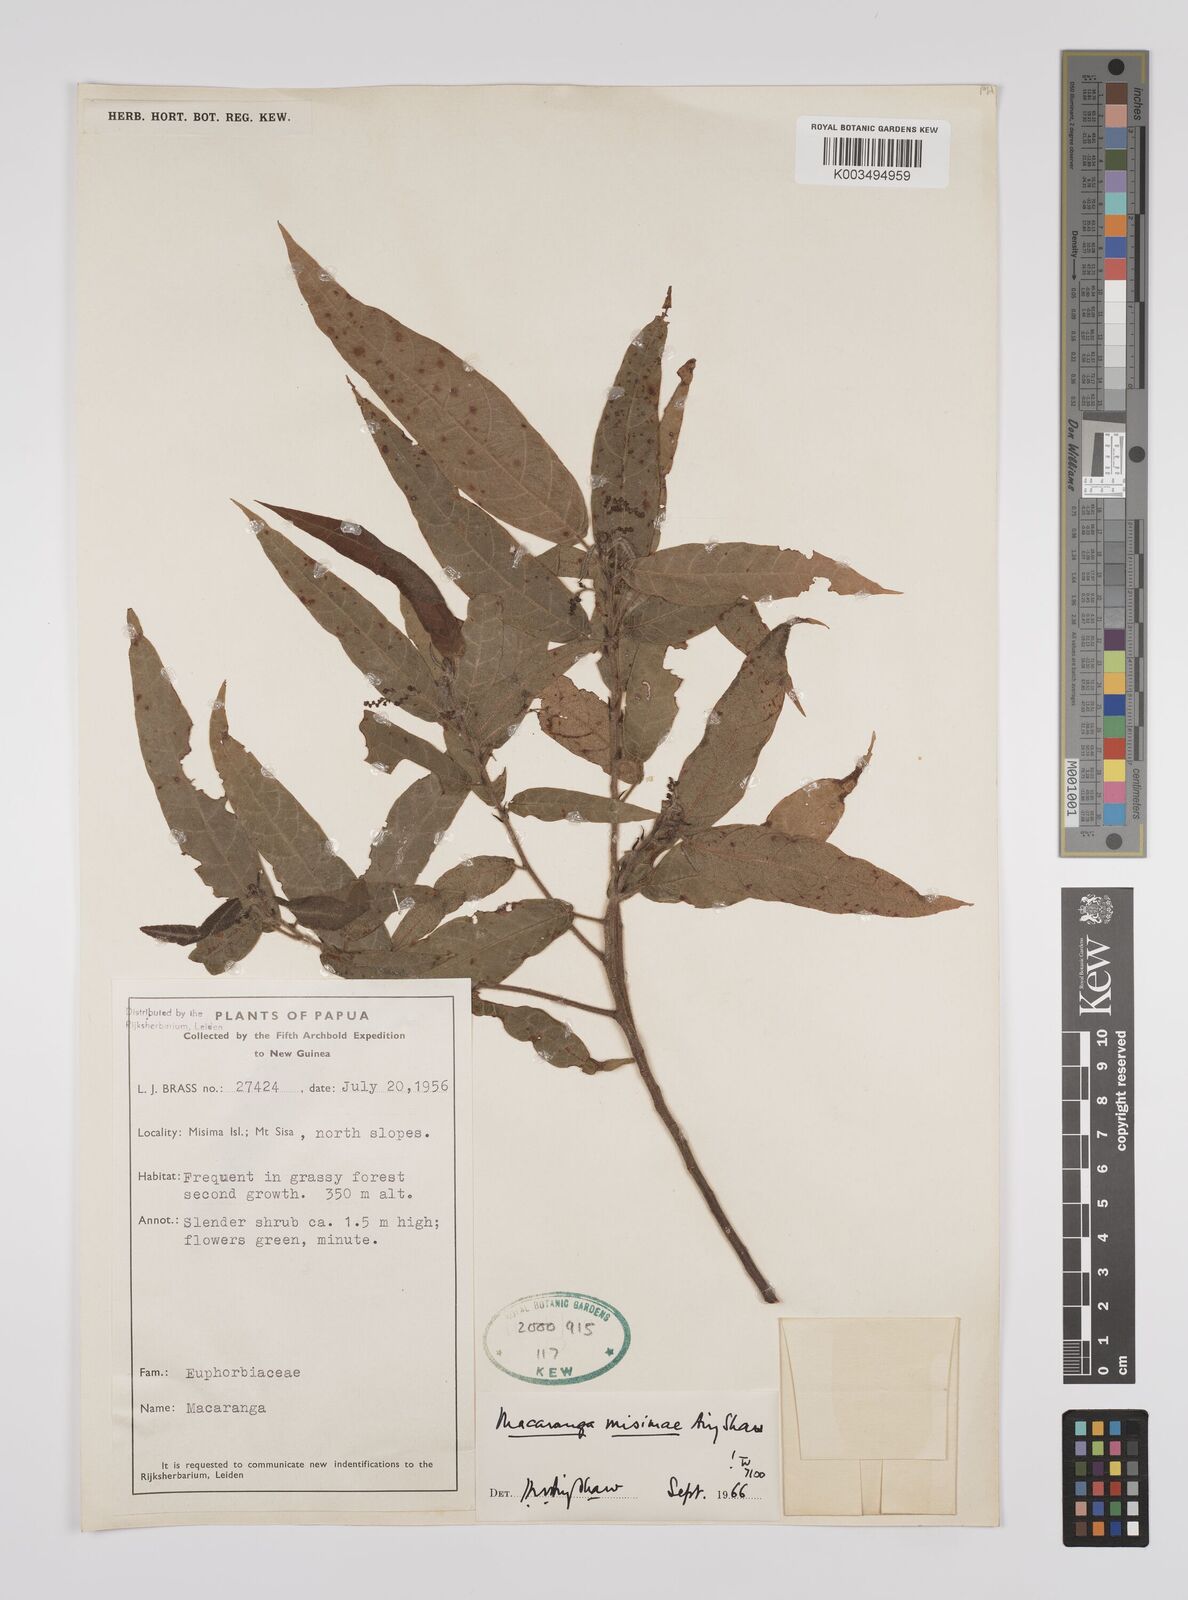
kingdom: Plantae
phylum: Tracheophyta
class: Magnoliopsida
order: Malpighiales
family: Euphorbiaceae
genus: Macaranga
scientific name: Macaranga misimae
